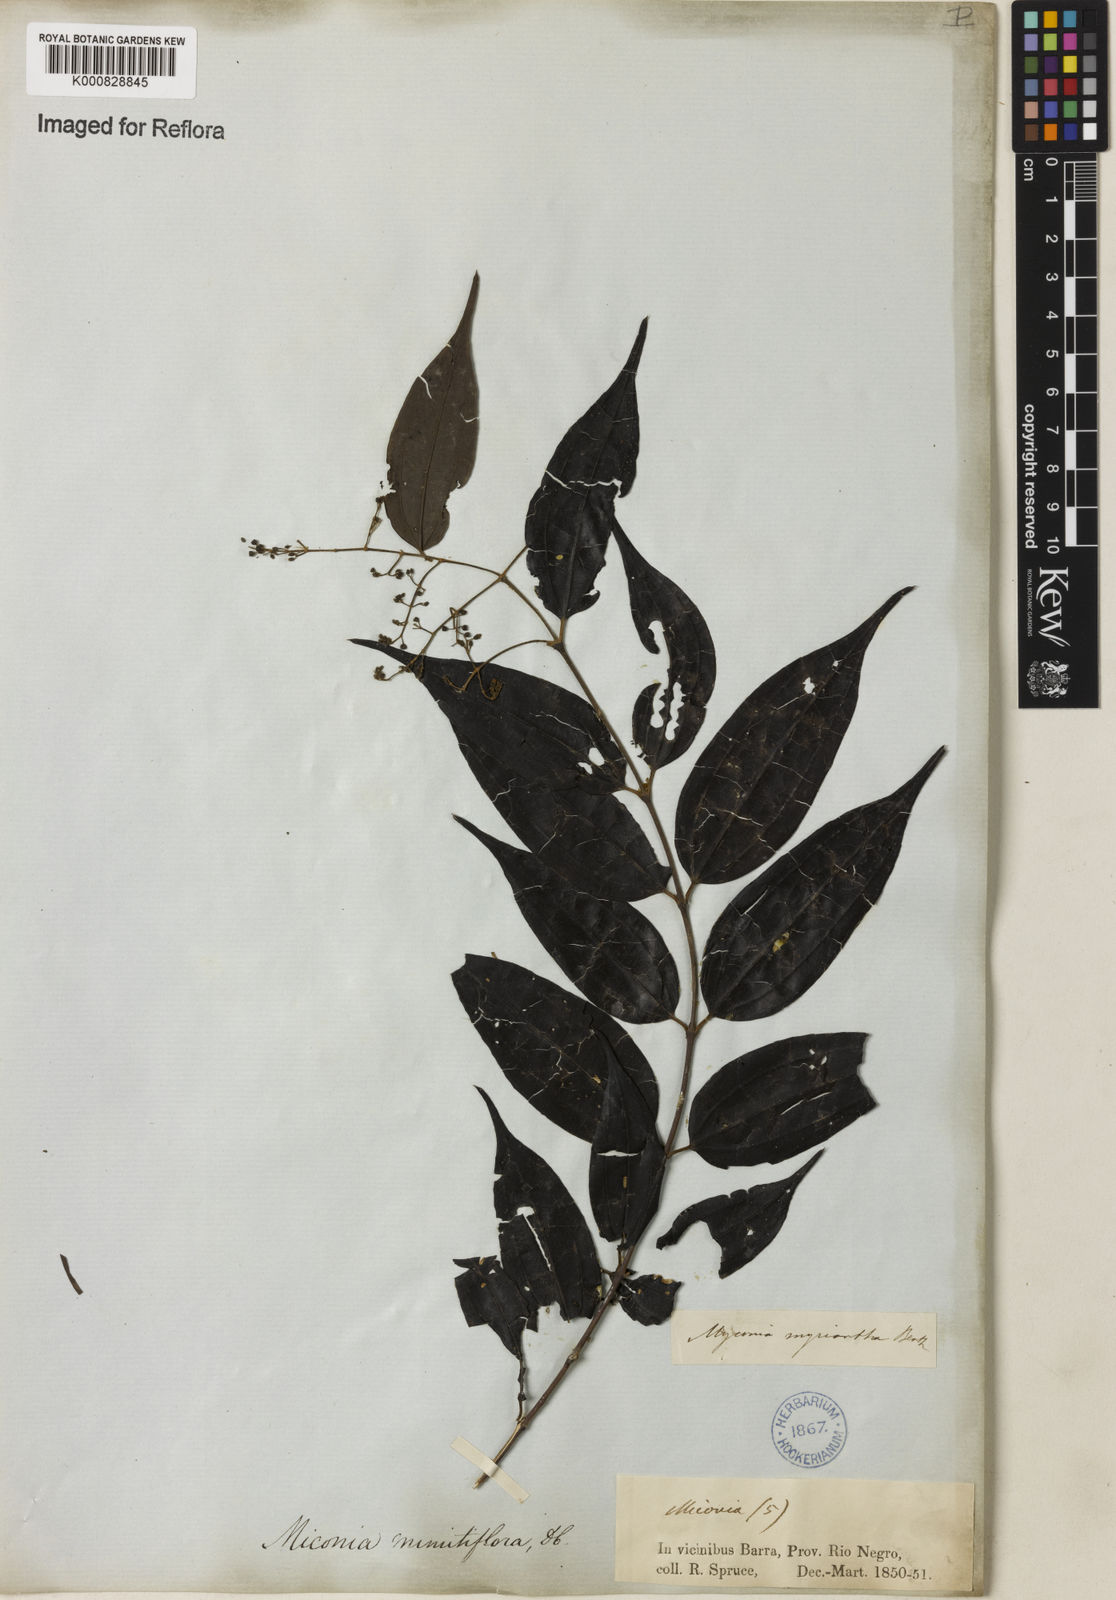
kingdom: Plantae
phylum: Tracheophyta
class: Magnoliopsida
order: Myrtales
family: Melastomataceae
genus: Miconia
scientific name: Miconia myriantha
